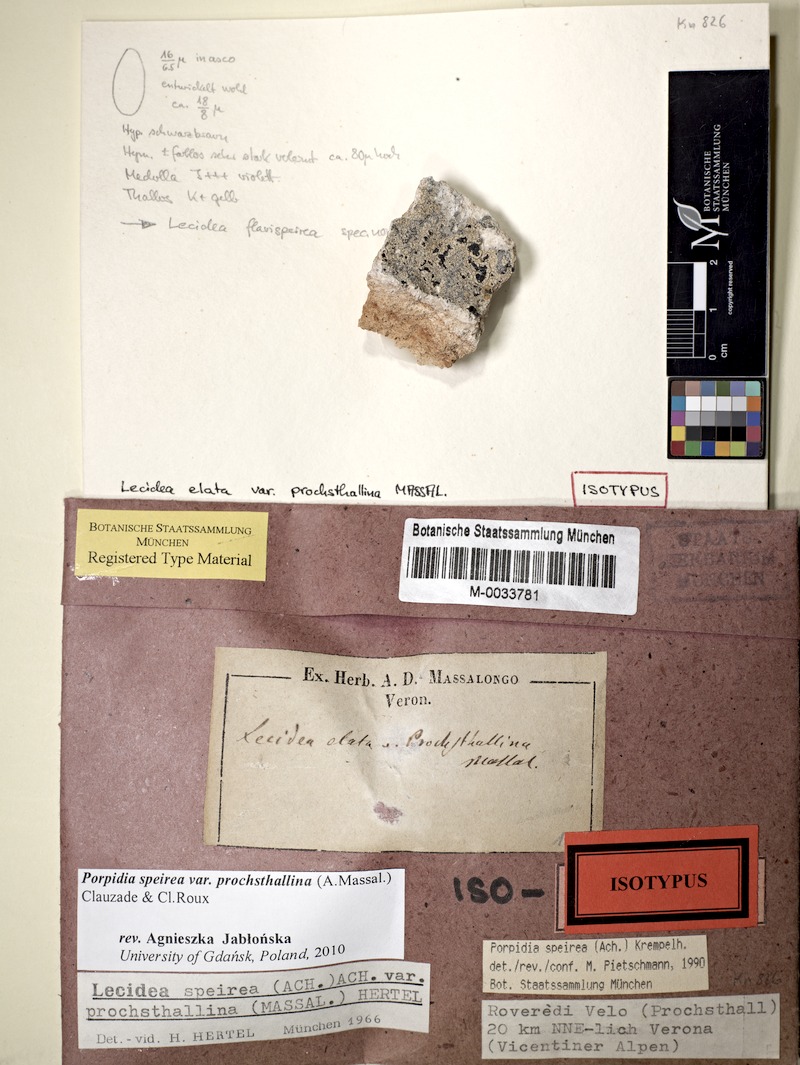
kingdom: Fungi
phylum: Ascomycota
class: Lecanoromycetes
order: Lecideales
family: Lecideaceae
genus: Porpidia
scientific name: Porpidia speirea
